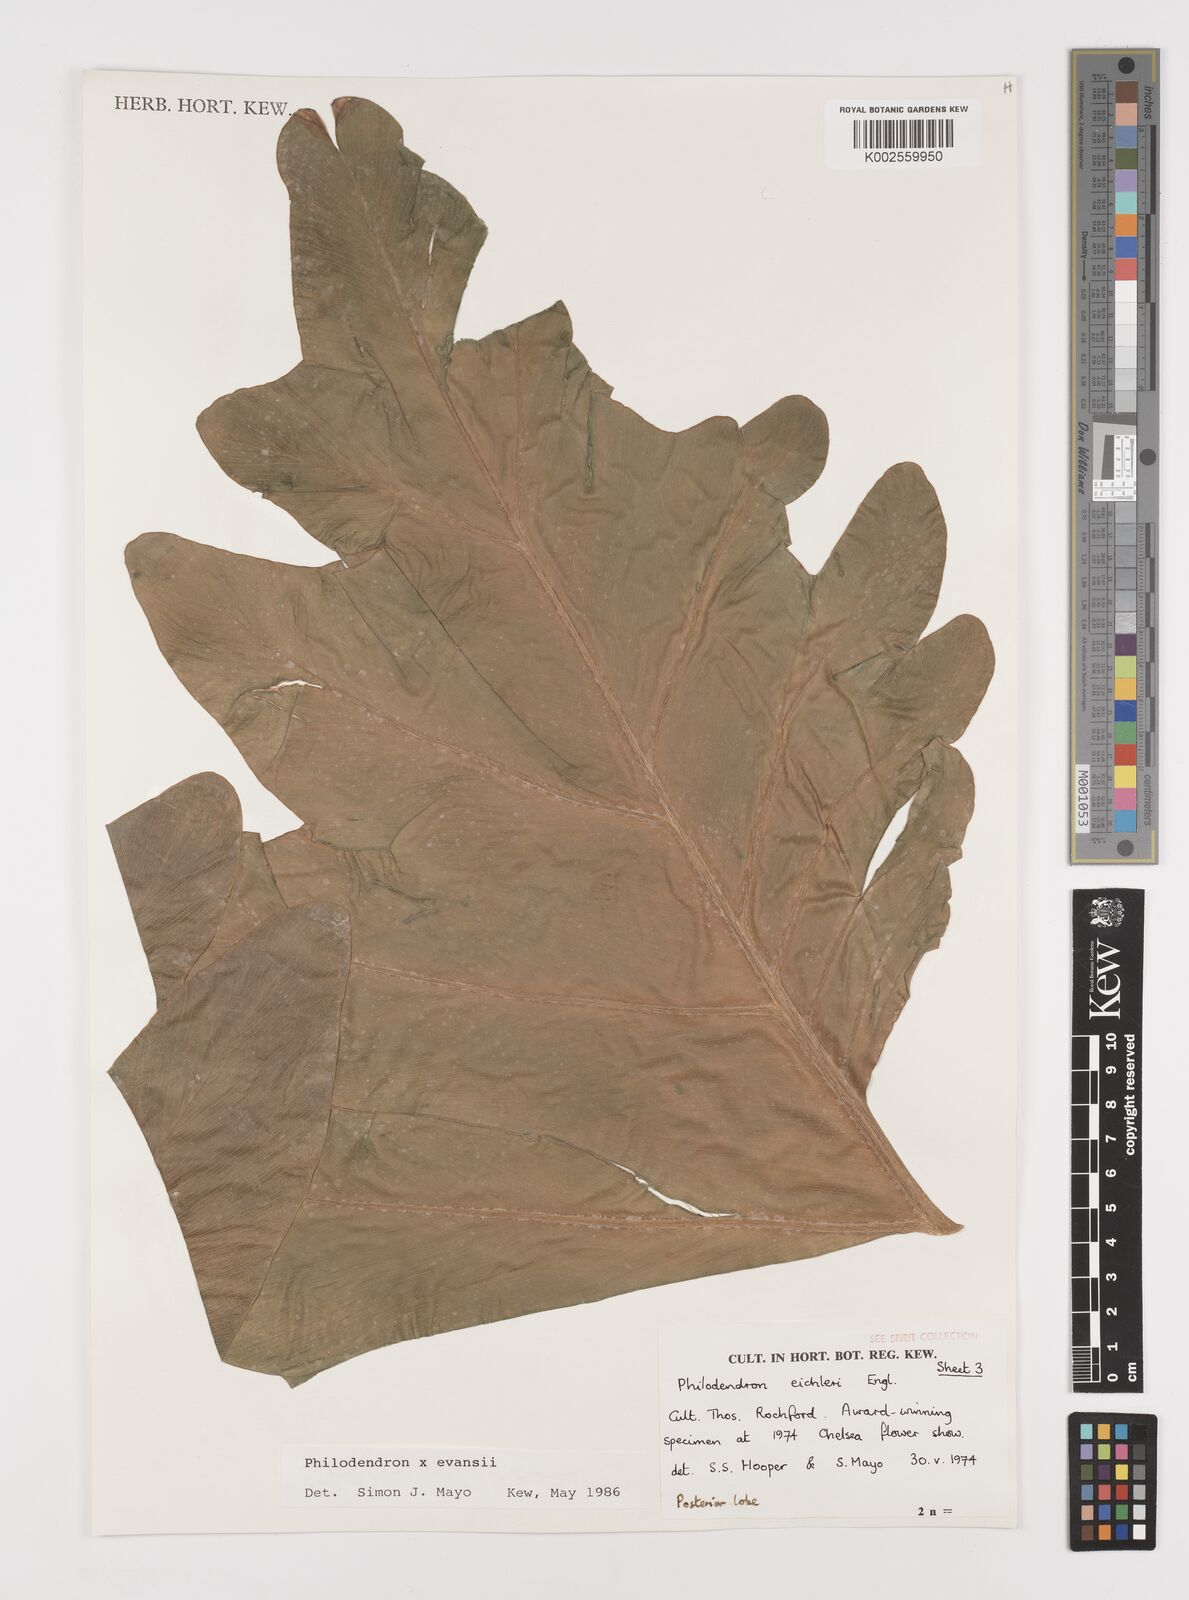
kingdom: Plantae
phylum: Tracheophyta
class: Liliopsida
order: Alismatales
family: Araceae
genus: Philodendron
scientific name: Philodendron
